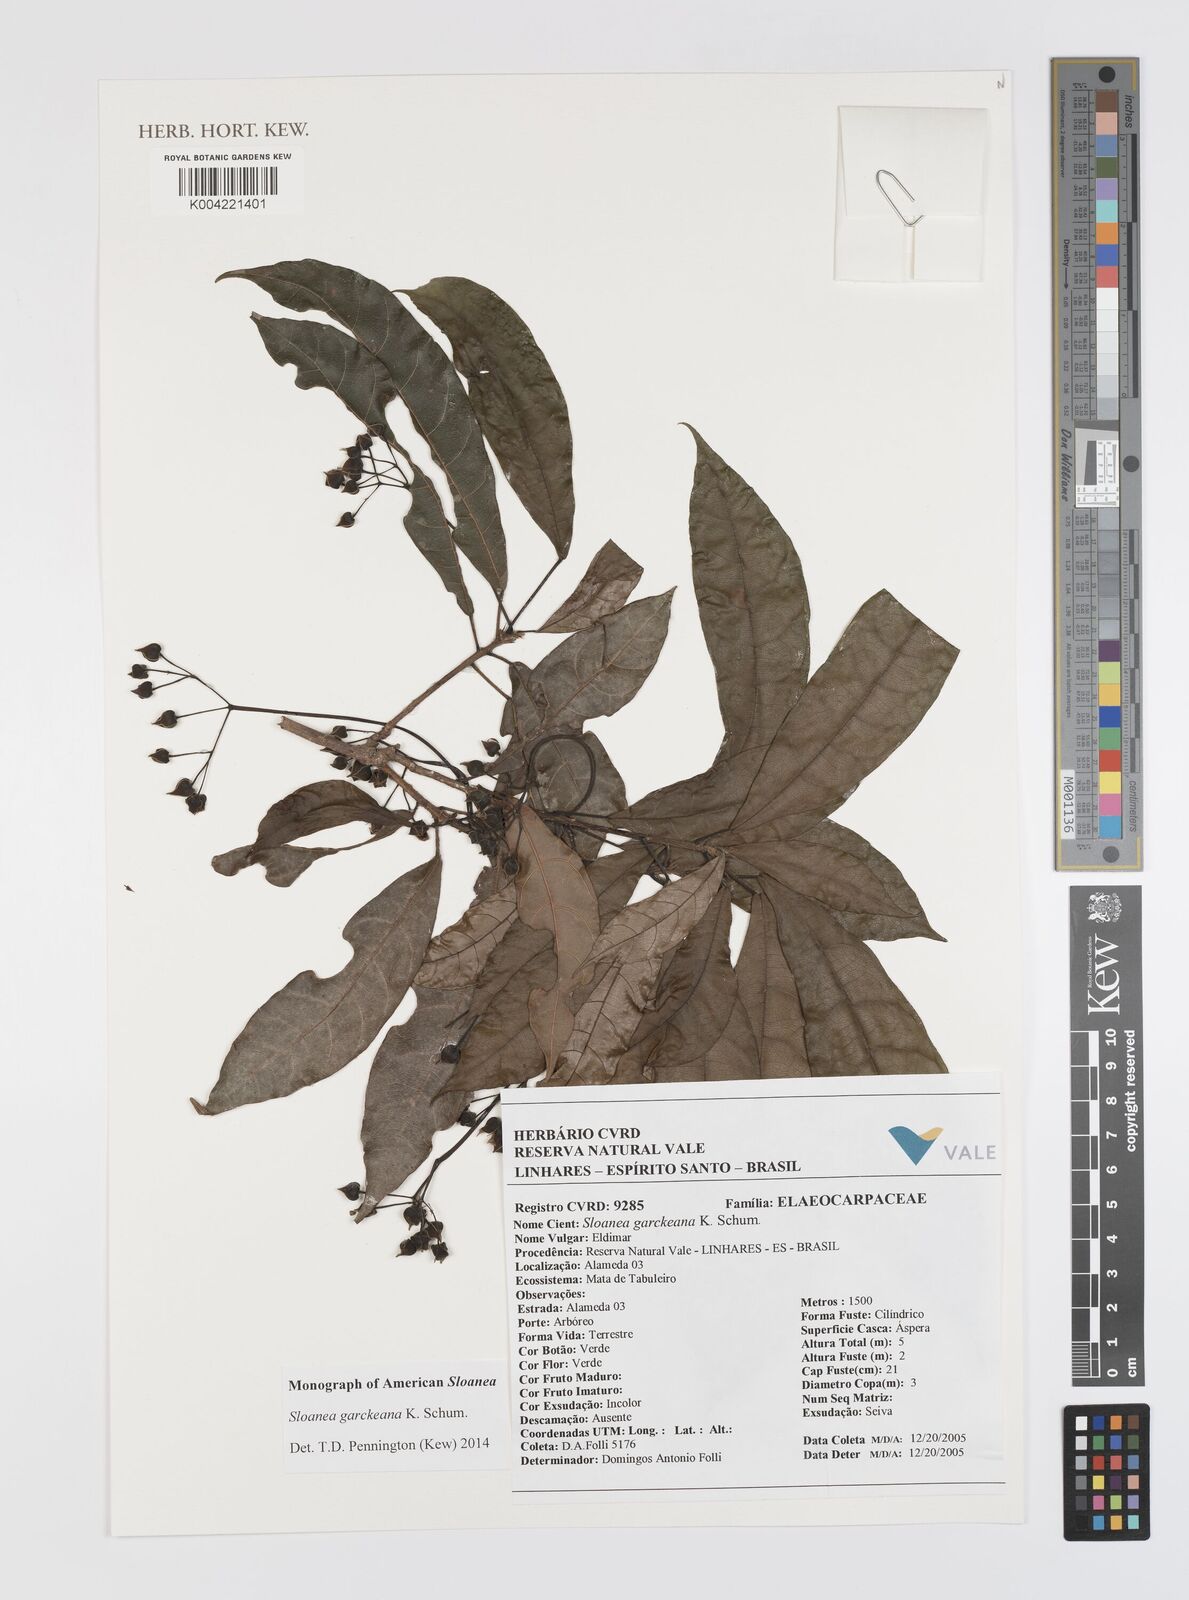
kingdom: Plantae
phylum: Tracheophyta
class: Magnoliopsida
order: Oxalidales
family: Elaeocarpaceae
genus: Sloanea
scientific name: Sloanea garckeana
